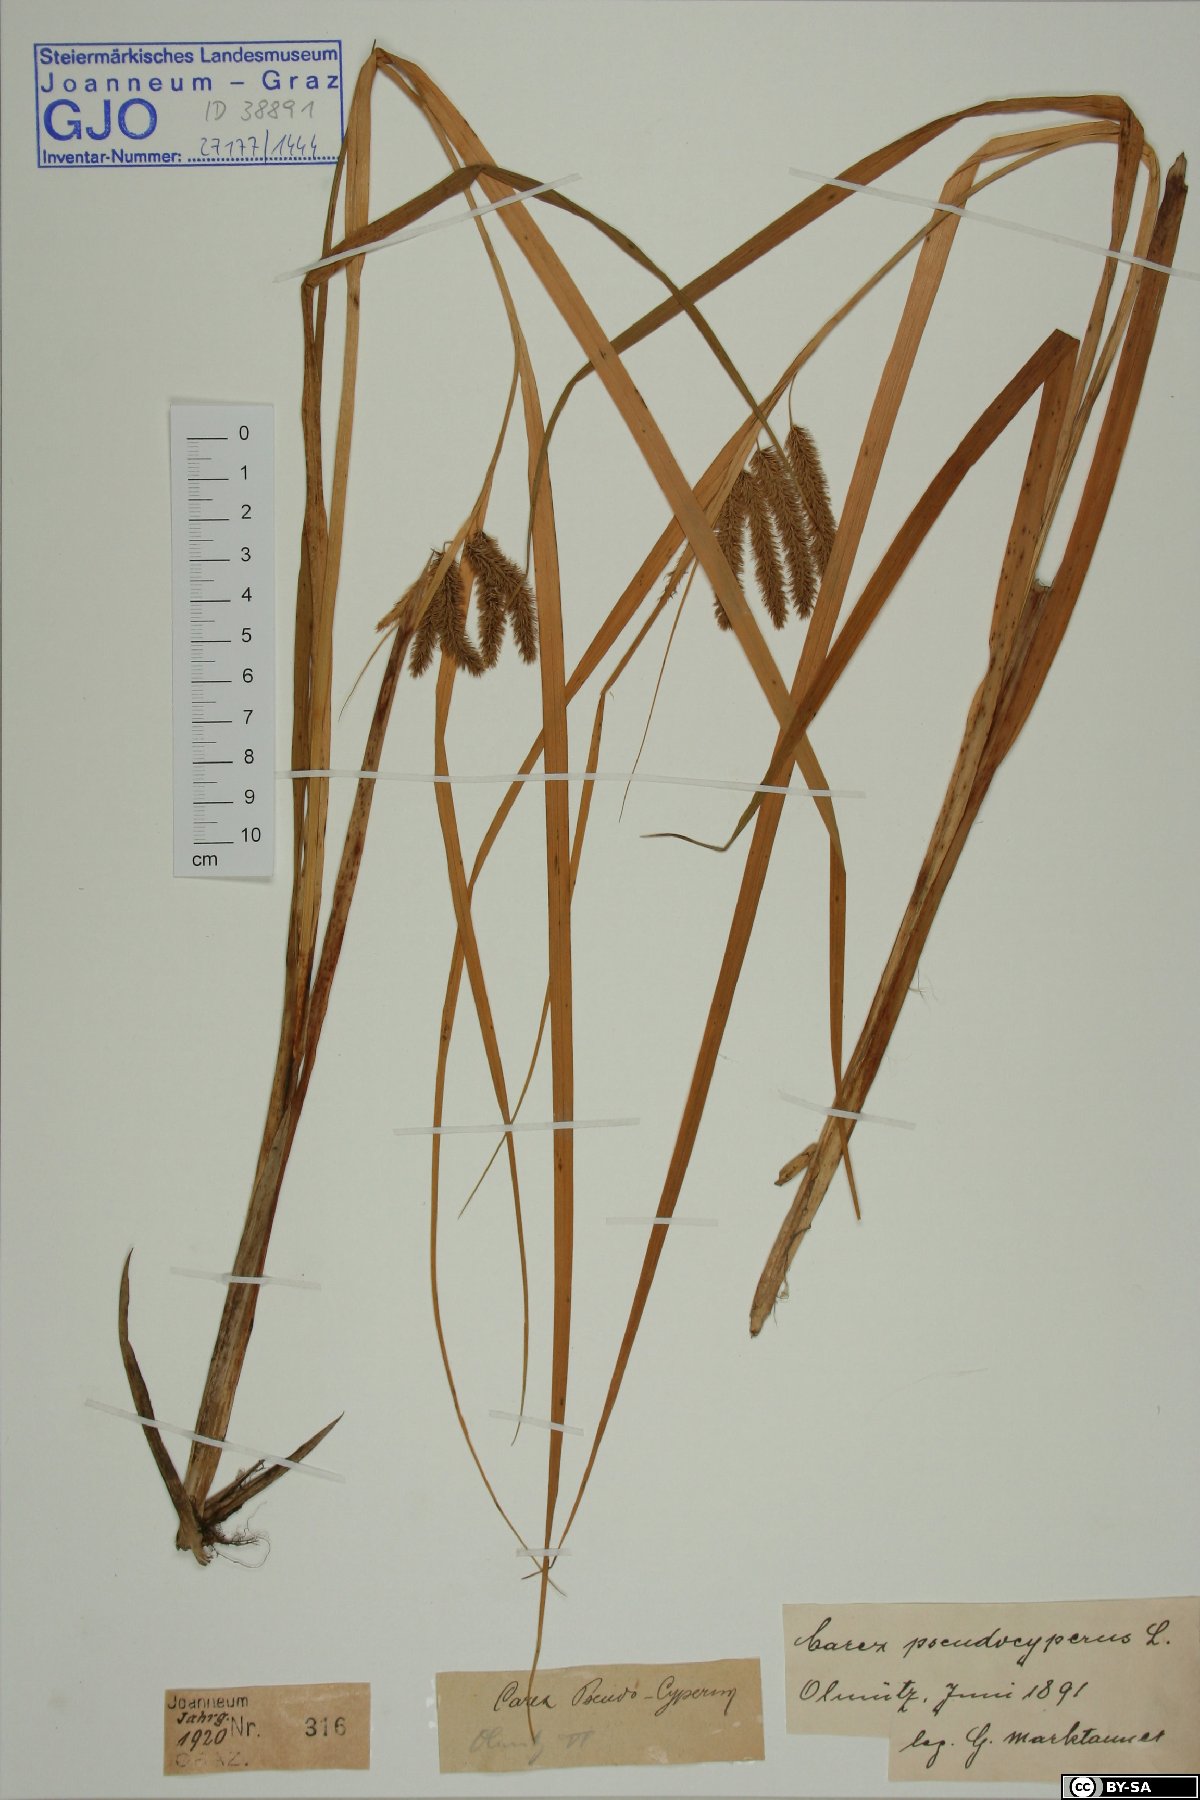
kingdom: Plantae
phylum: Tracheophyta
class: Liliopsida
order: Poales
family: Cyperaceae
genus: Carex
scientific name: Carex pseudocyperus
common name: Cyperus sedge
